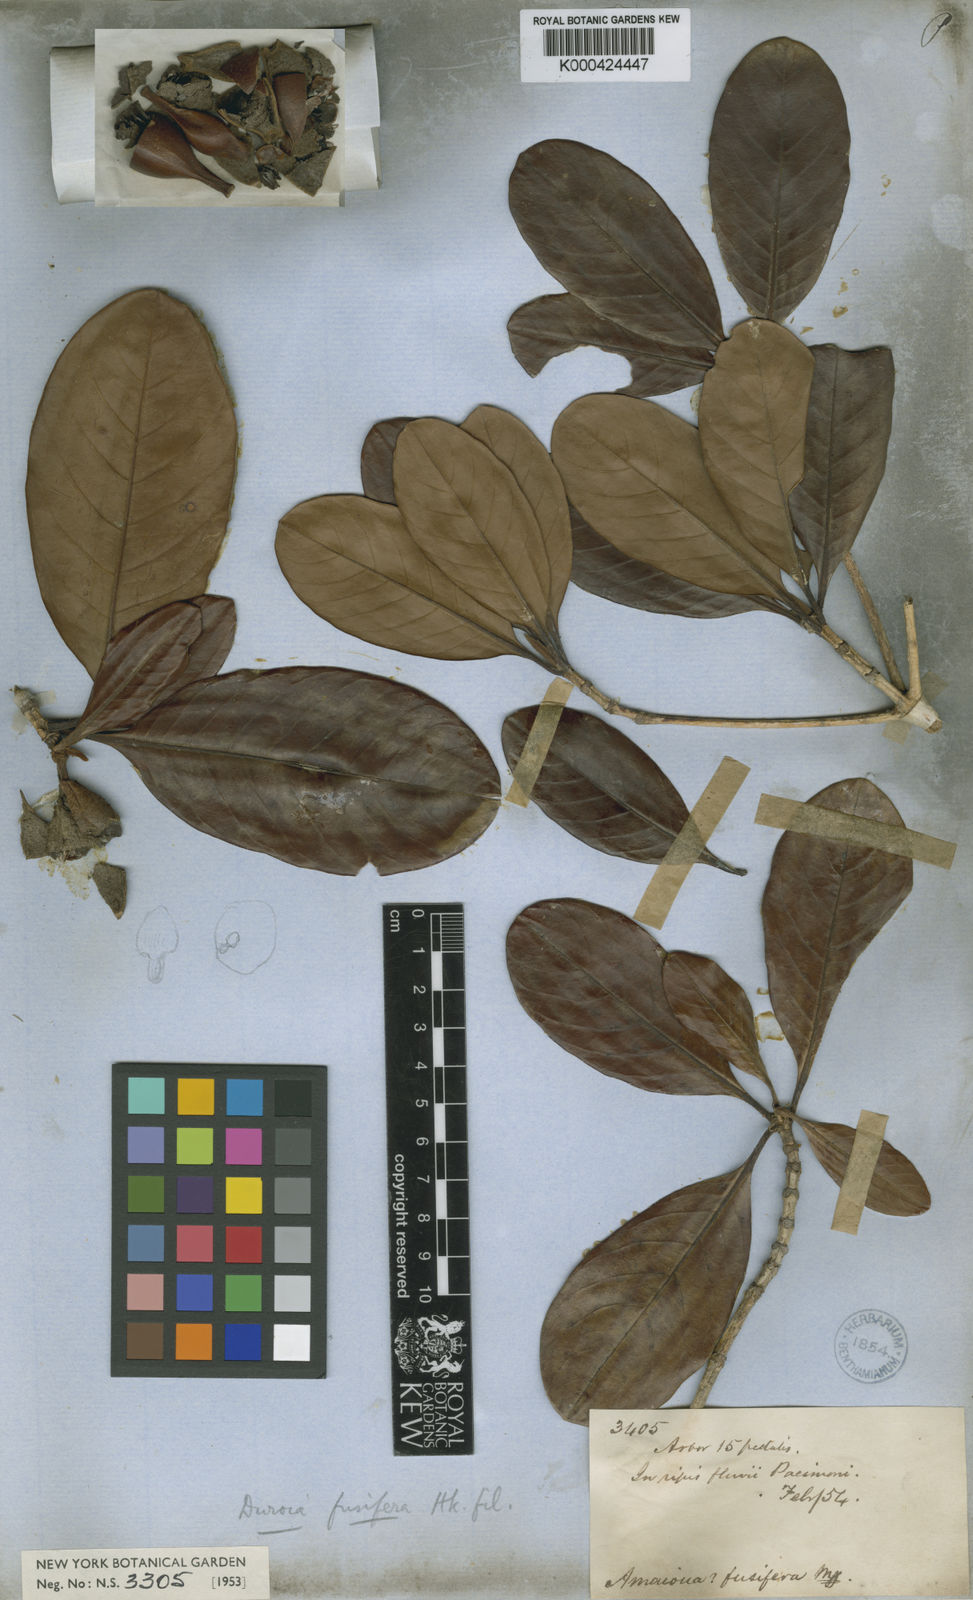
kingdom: Plantae
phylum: Tracheophyta
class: Magnoliopsida
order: Gentianales
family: Rubiaceae
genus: Duroia
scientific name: Duroia fusifera
